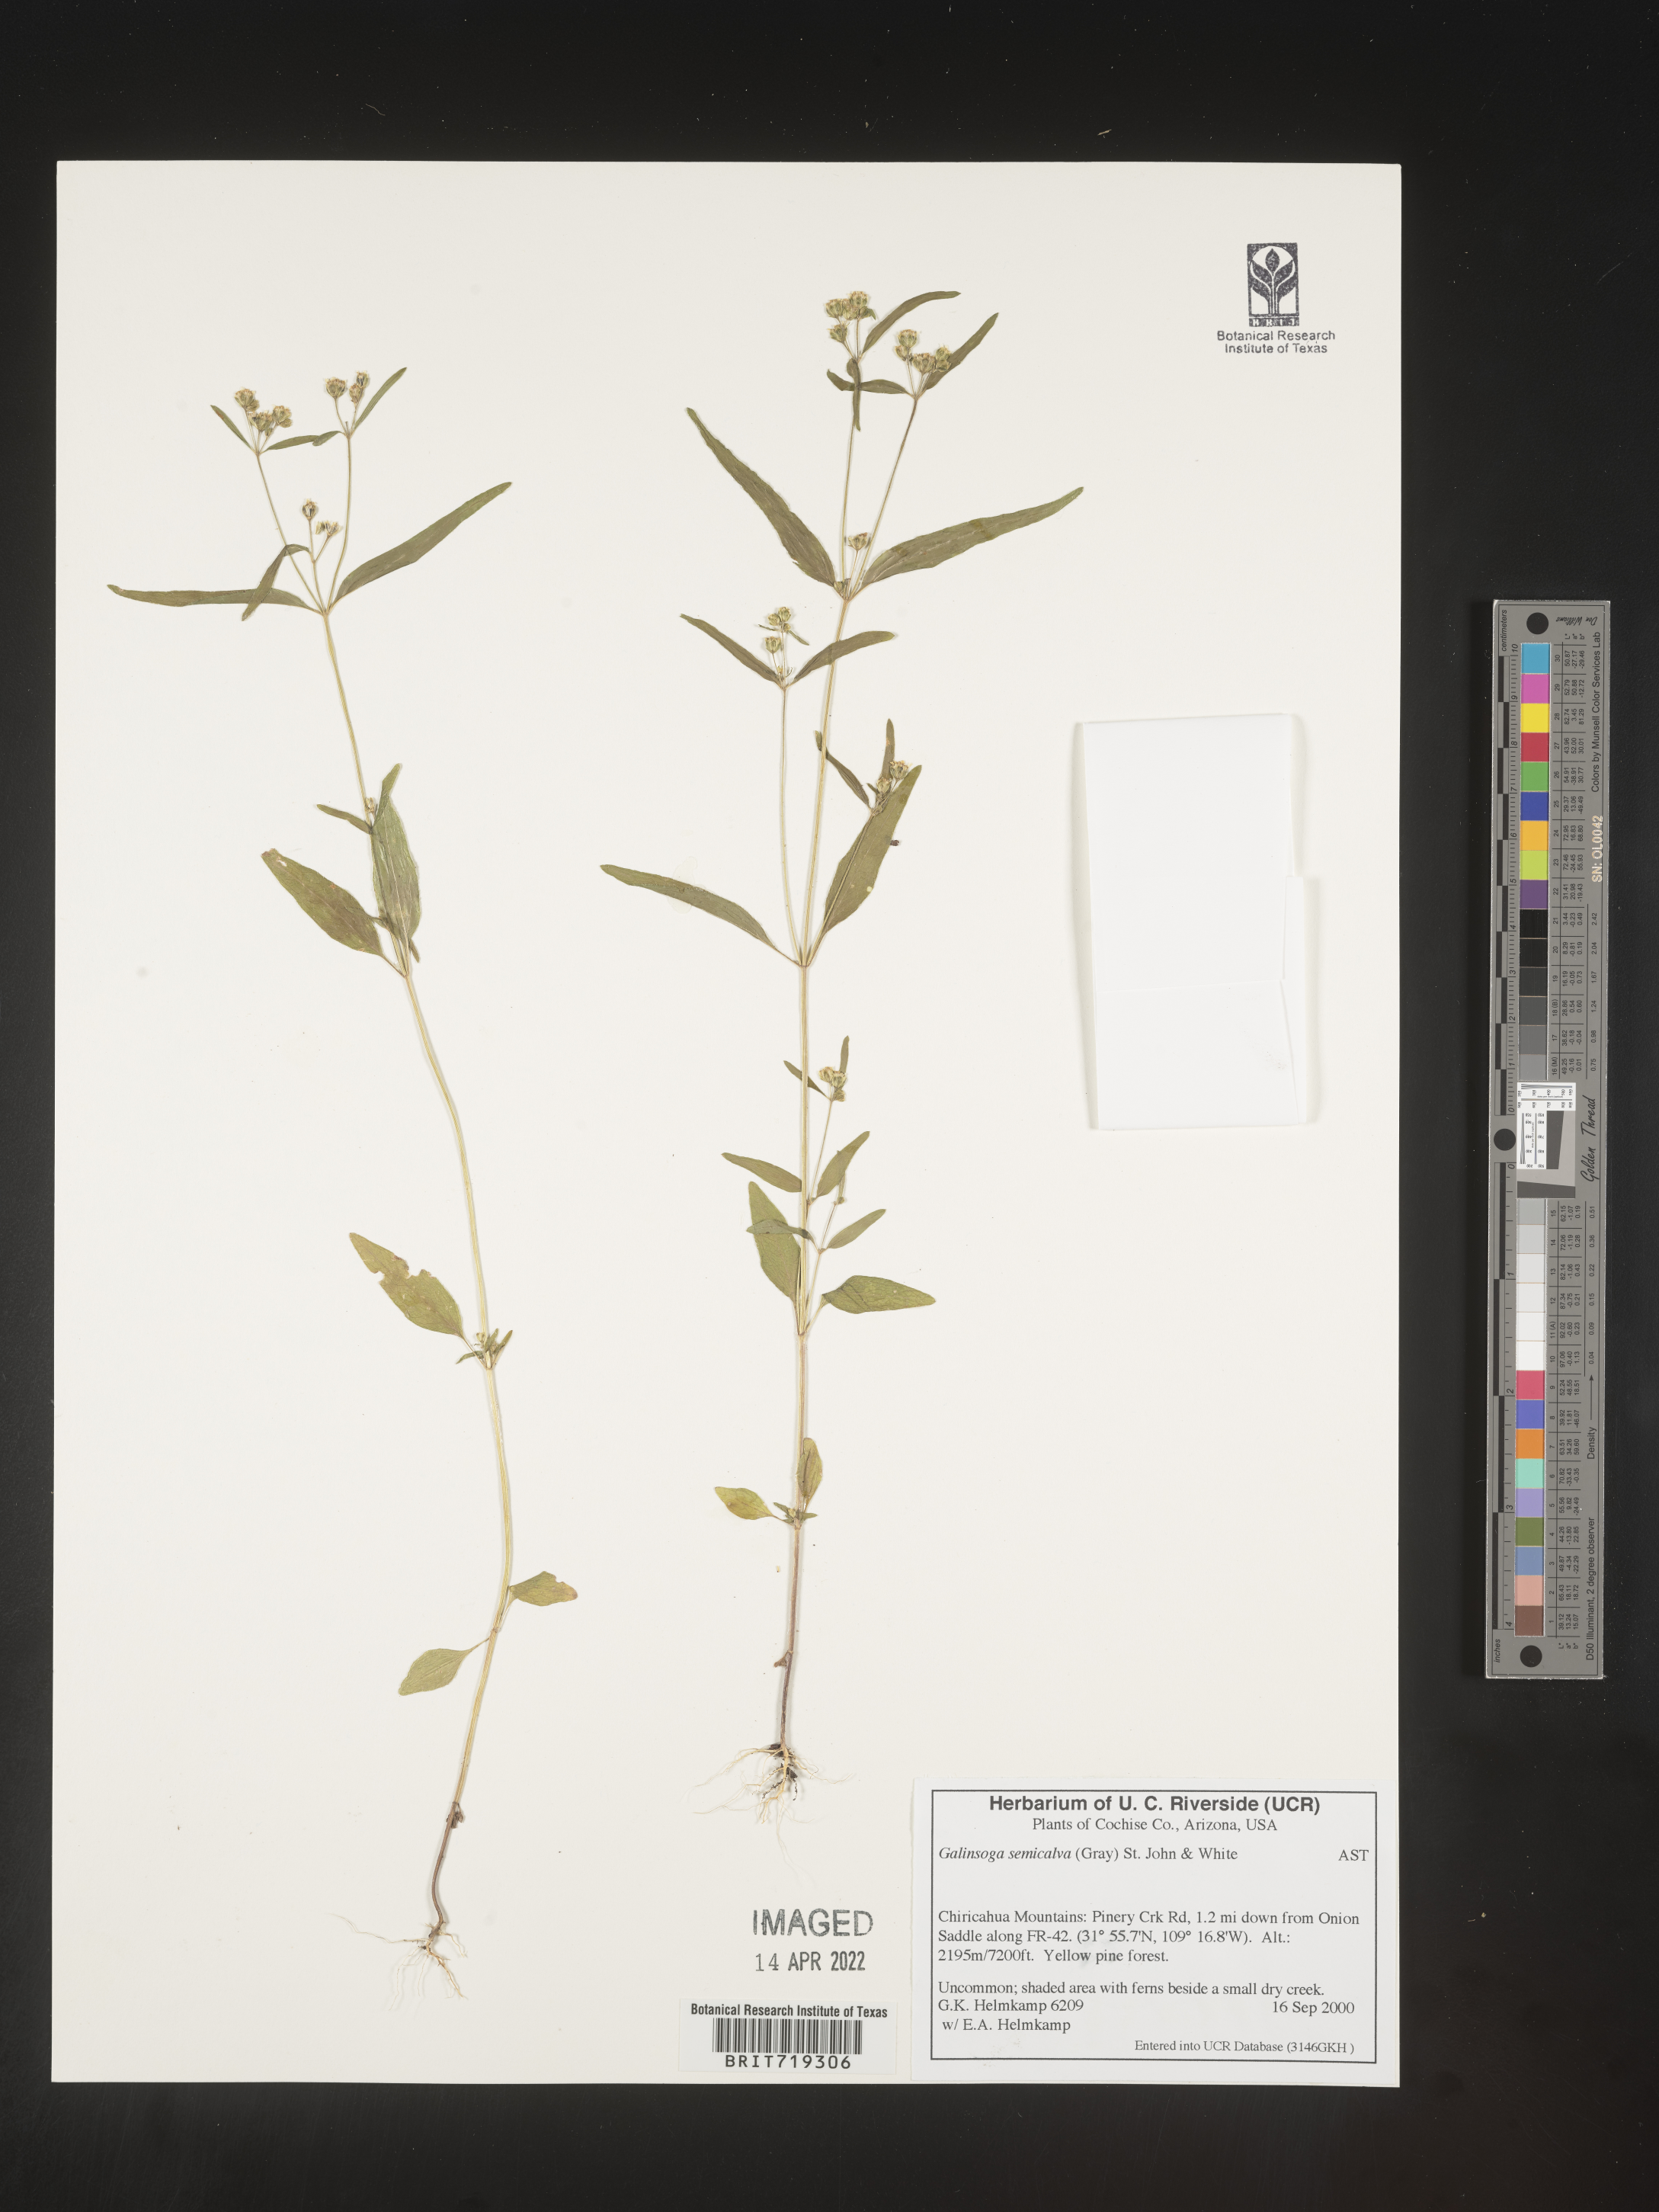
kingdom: Plantae
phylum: Tracheophyta
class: Magnoliopsida
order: Asterales
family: Asteraceae
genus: Galinsoga
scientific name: Galinsoga parviflora
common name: Gallant soldier
